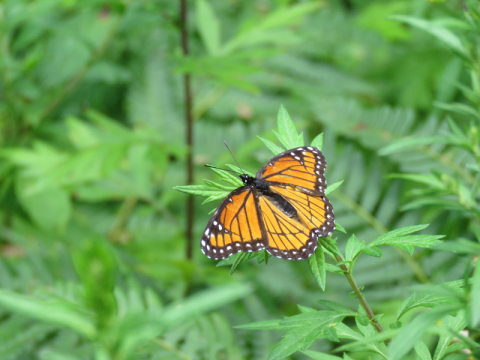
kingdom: Animalia
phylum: Arthropoda
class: Insecta
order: Lepidoptera
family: Nymphalidae
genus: Limenitis
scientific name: Limenitis archippus
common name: Viceroy
